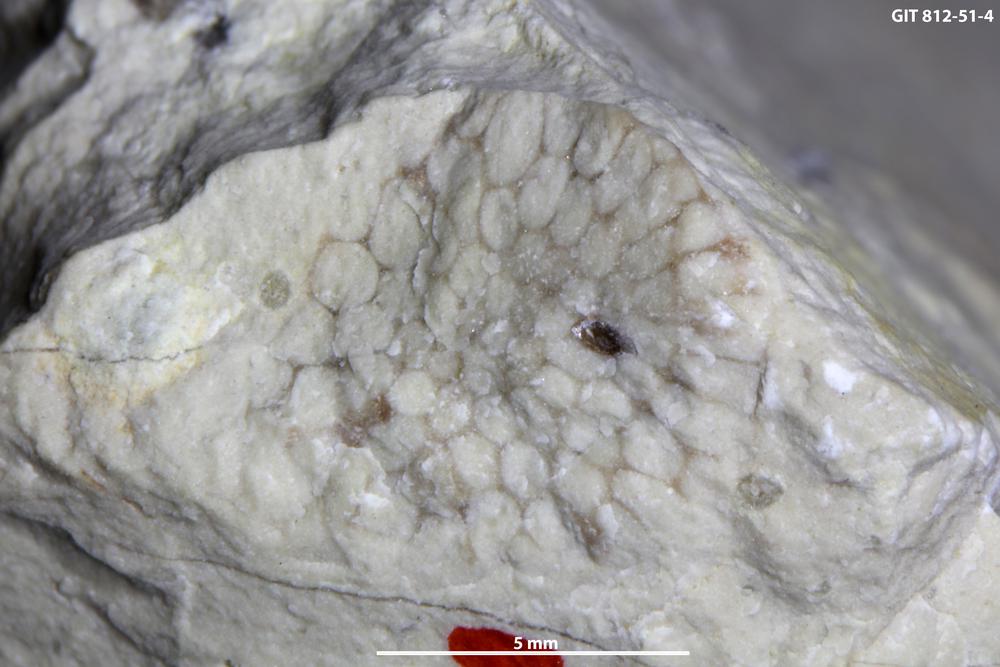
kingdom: Plantae
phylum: Chlorophyta
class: Ulvophyceae
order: Cyclocrinales
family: Coelosphaeridiaceae
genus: Coelosphaeridium
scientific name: Coelosphaeridium
